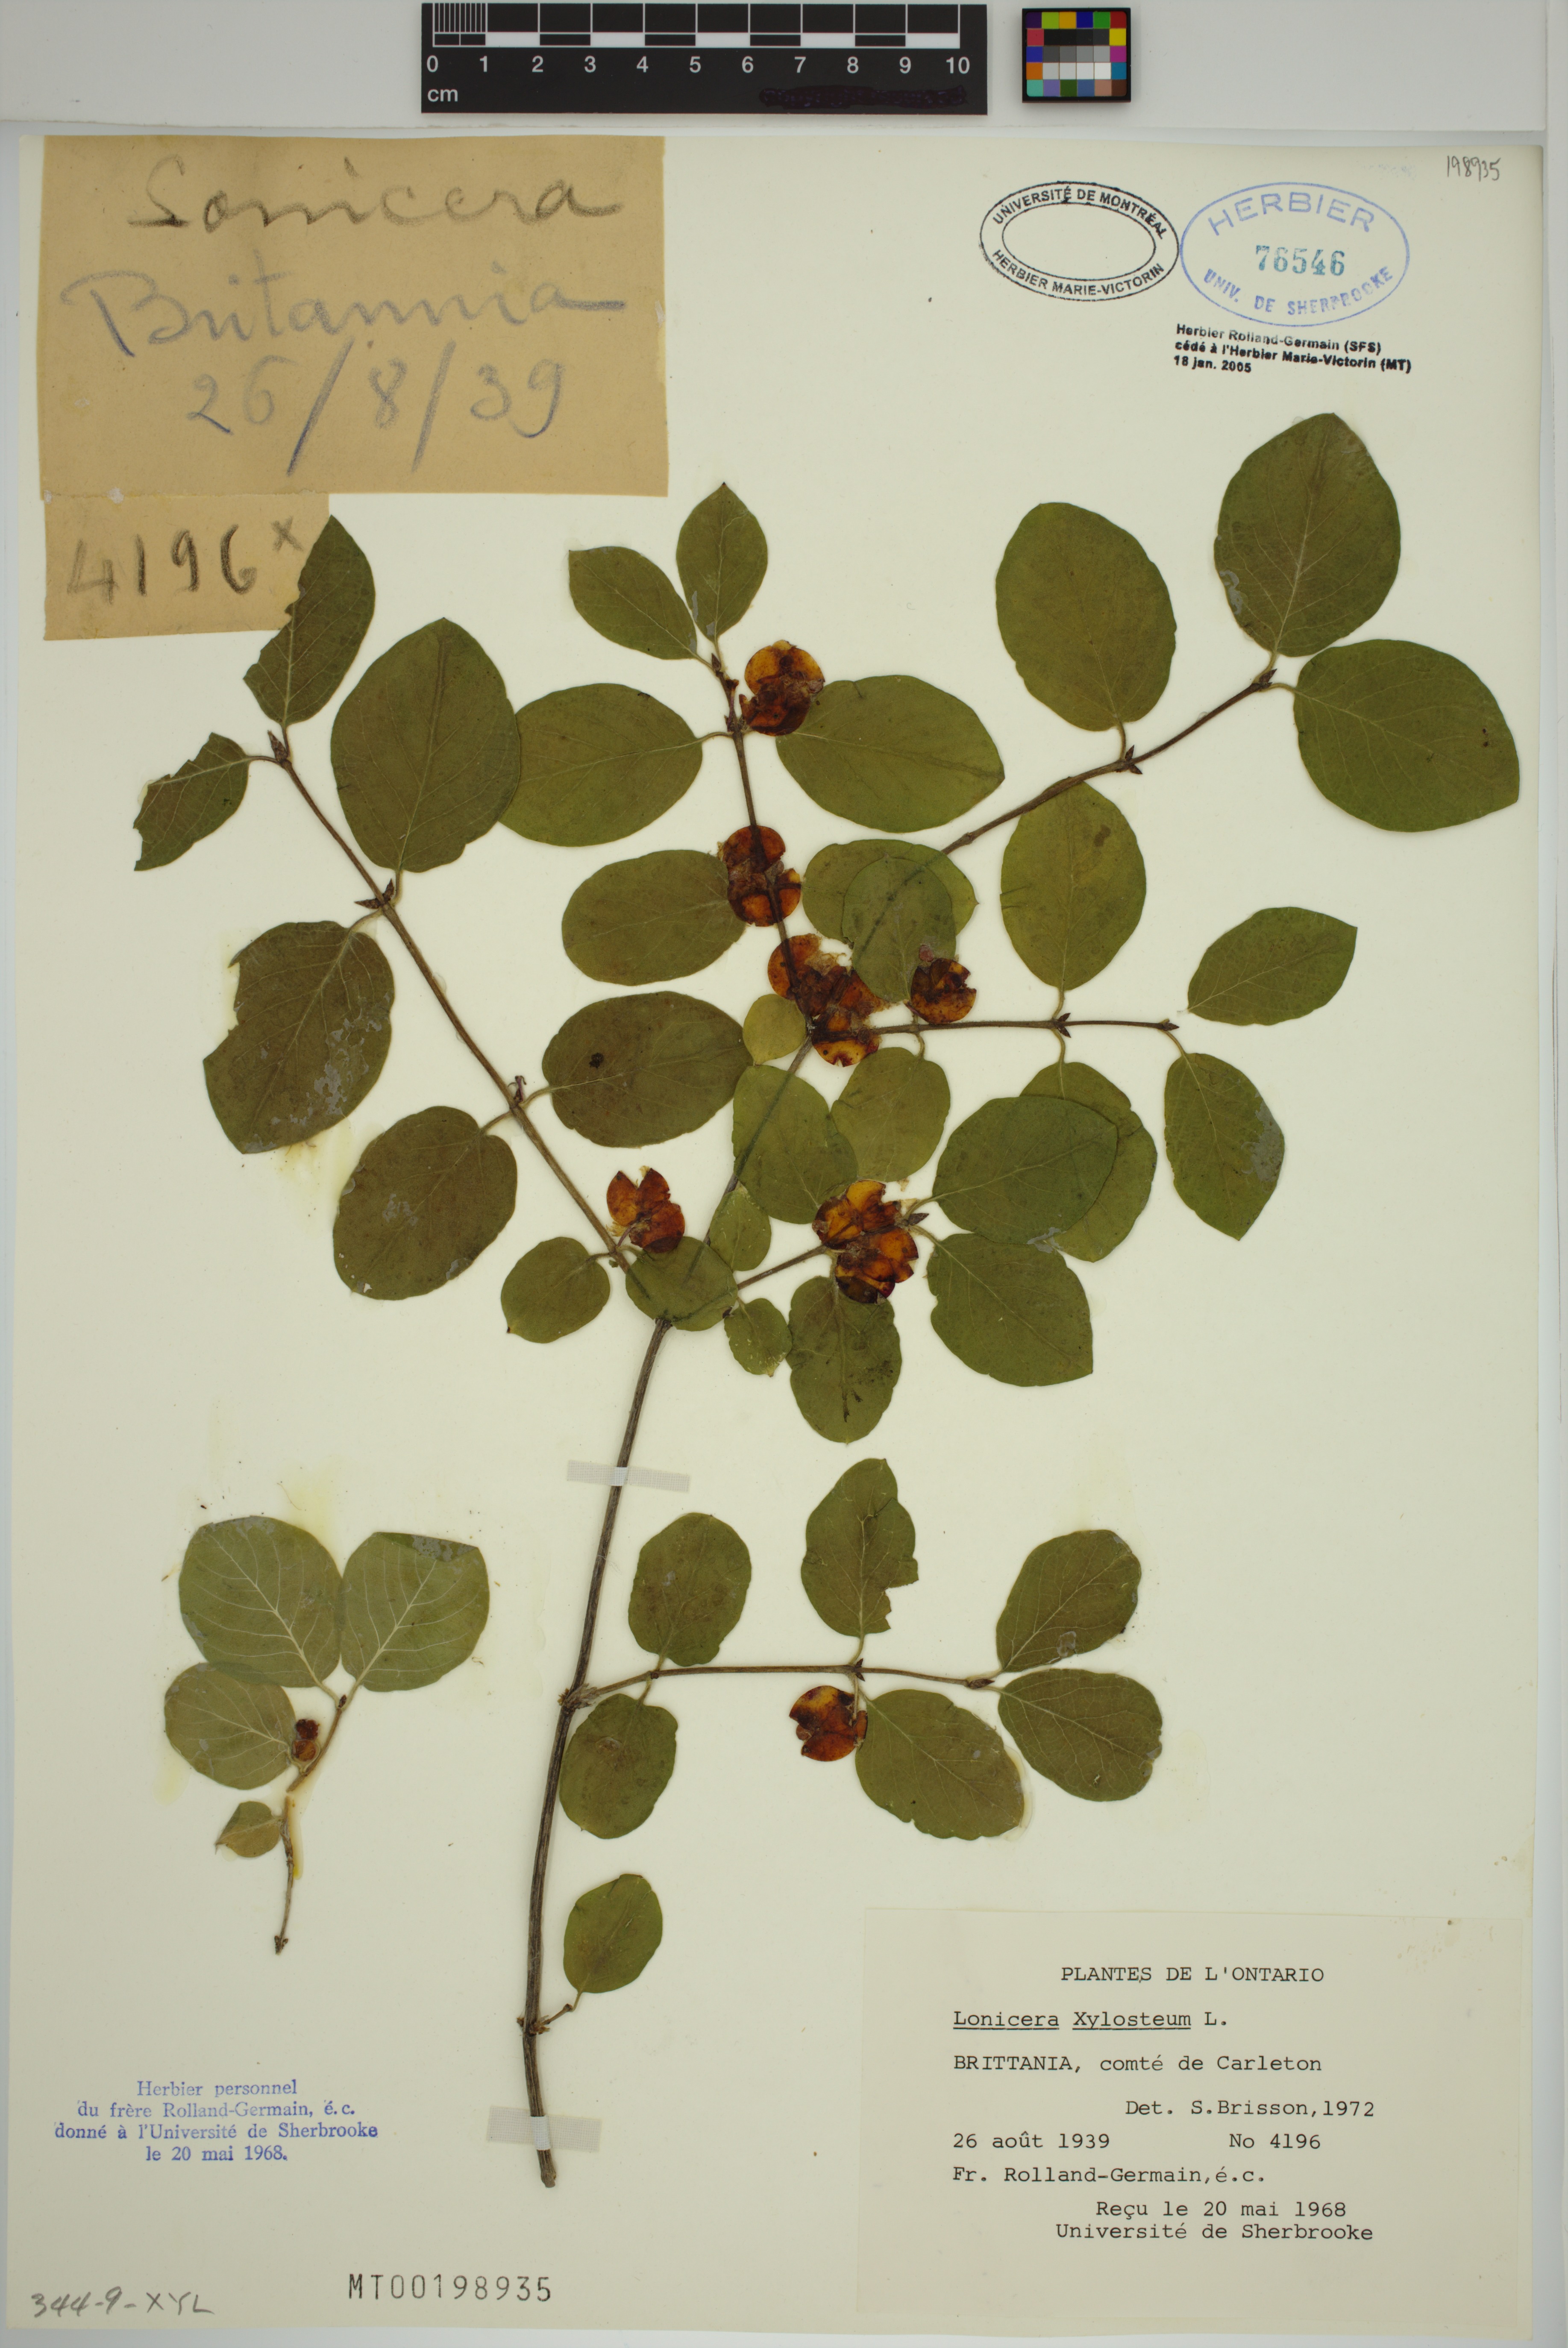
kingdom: Plantae
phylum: Tracheophyta
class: Magnoliopsida
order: Dipsacales
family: Caprifoliaceae
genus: Lonicera
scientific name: Lonicera tatarica
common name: Tatarian honeysuckle
